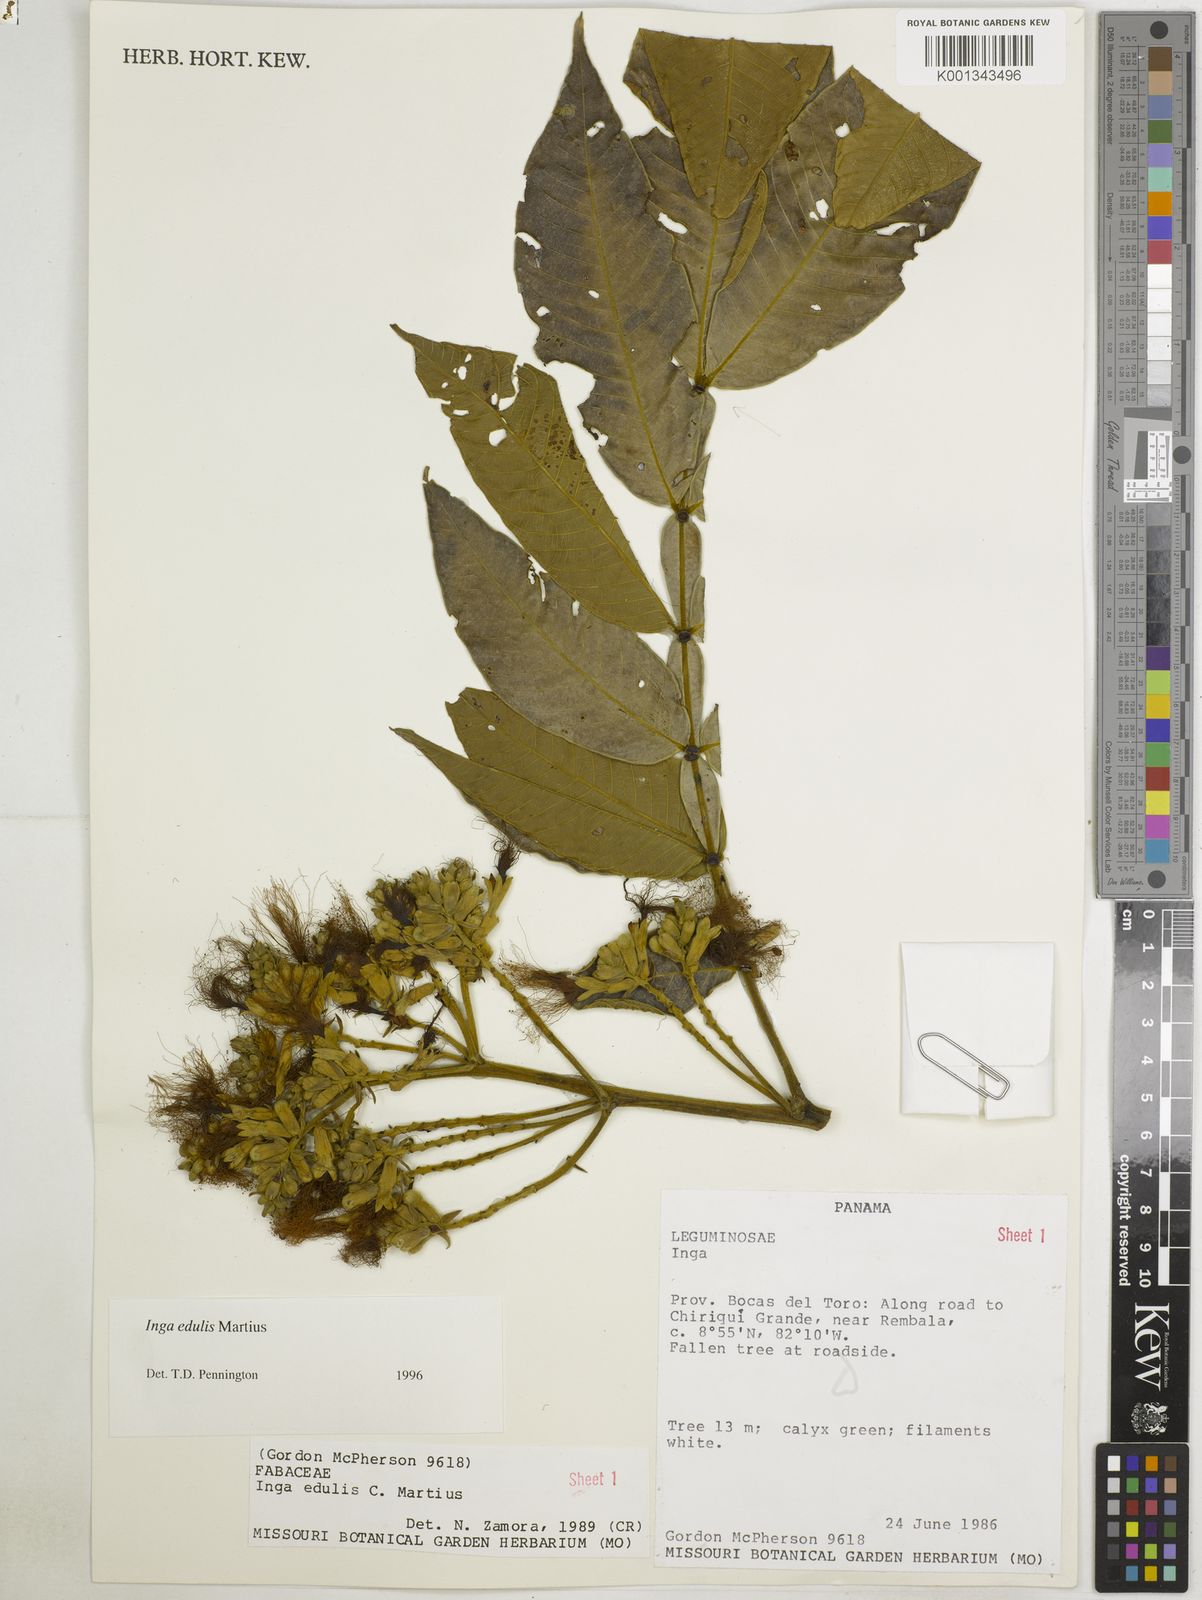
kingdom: Plantae
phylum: Tracheophyta
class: Magnoliopsida
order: Fabales
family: Fabaceae
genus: Inga
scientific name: Inga edulis
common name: Ice cream bean
